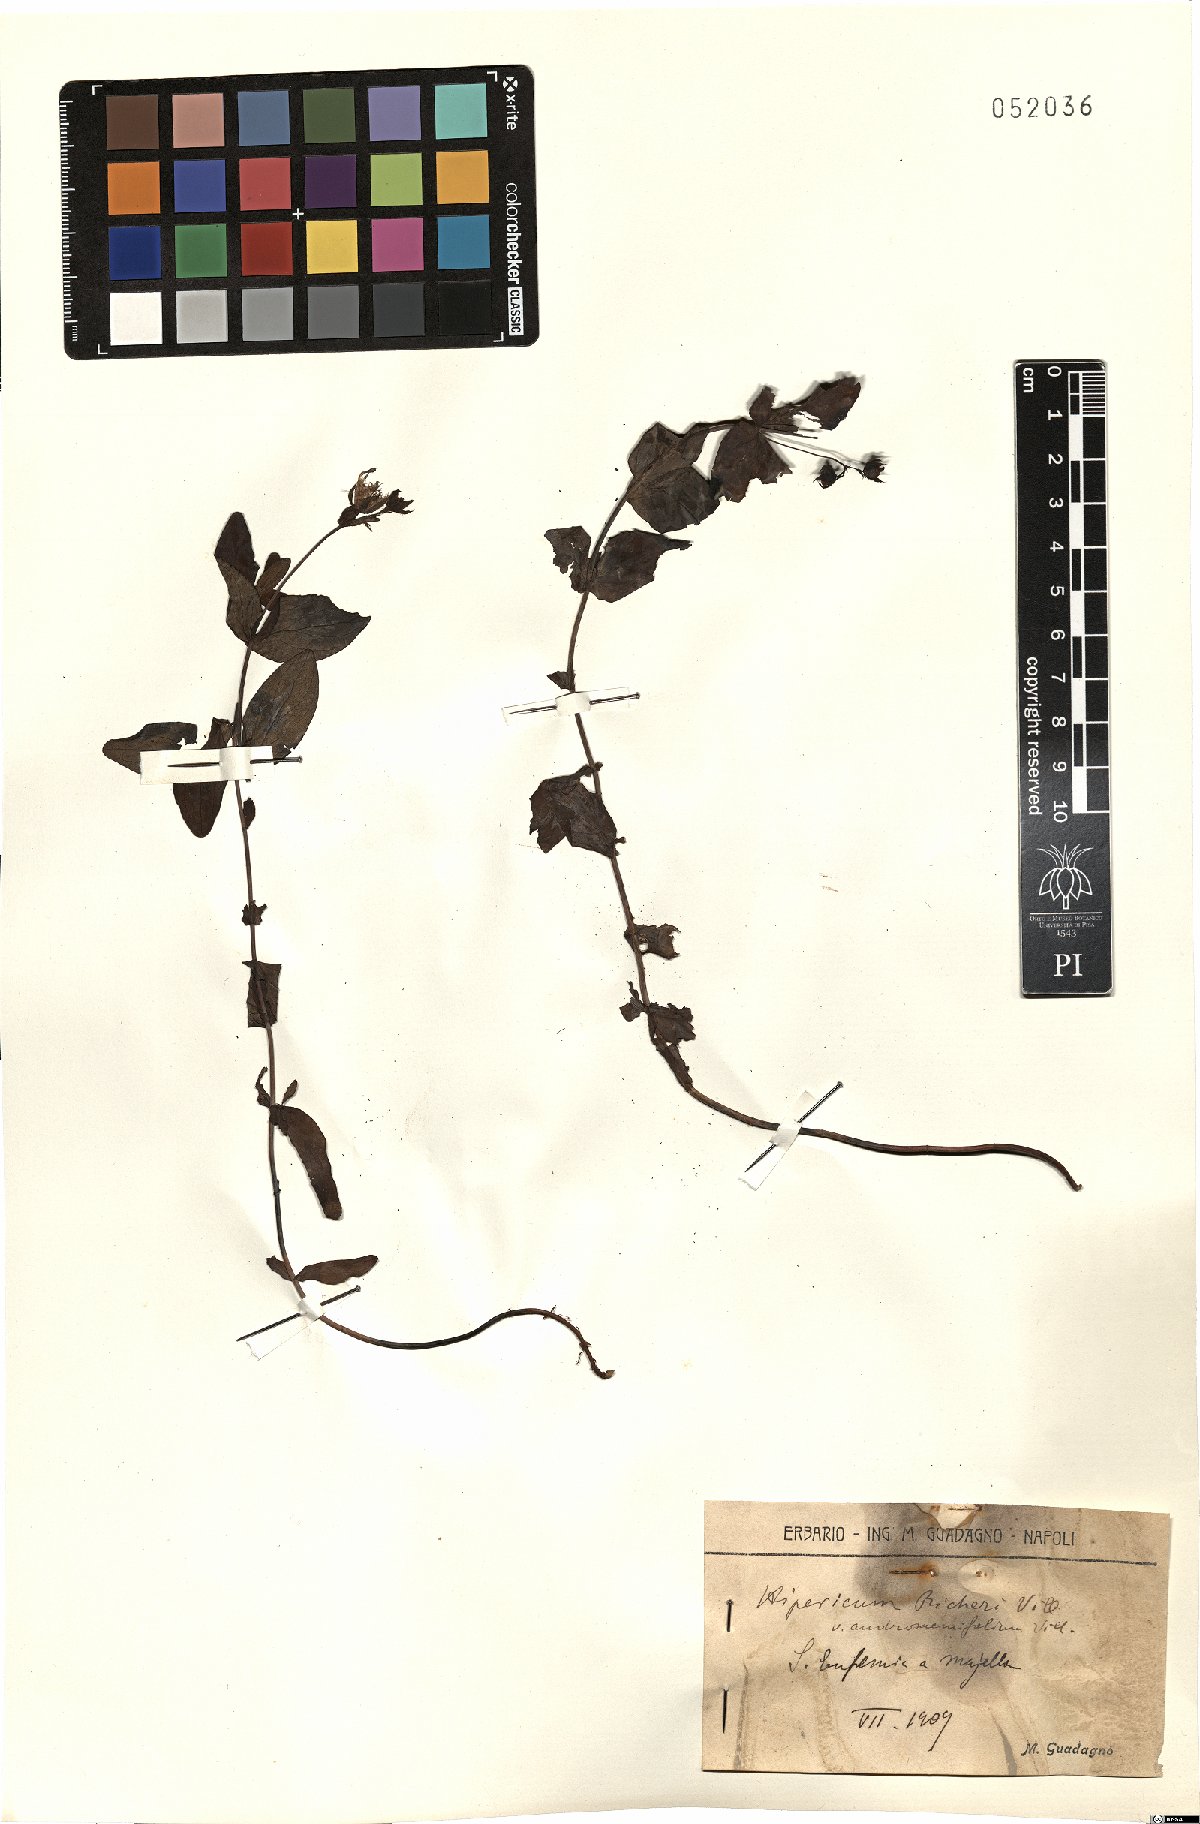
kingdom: Plantae
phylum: Tracheophyta
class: Magnoliopsida
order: Malpighiales
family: Hypericaceae
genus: Hypericum
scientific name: Hypericum richeri
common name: Alpine st john's-wort
